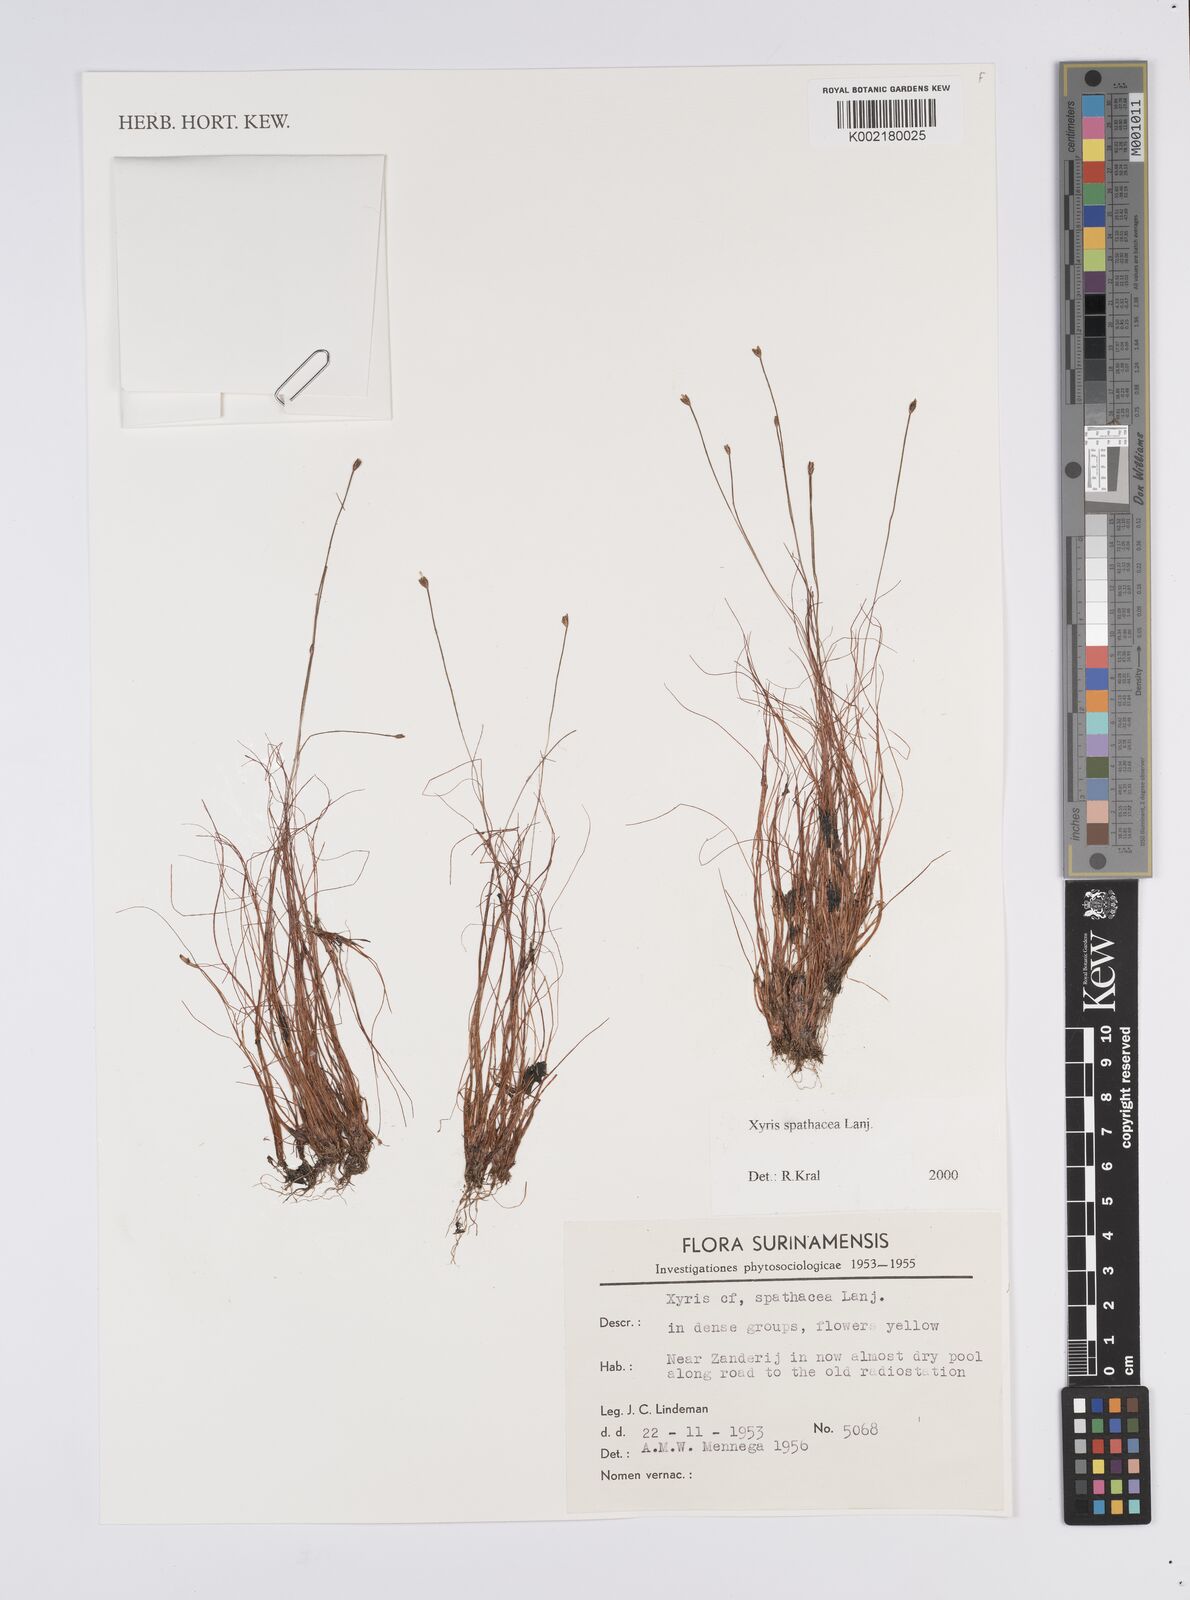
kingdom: Plantae
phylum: Tracheophyta
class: Liliopsida
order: Poales
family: Xyridaceae
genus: Xyris
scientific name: Xyris spathacea
